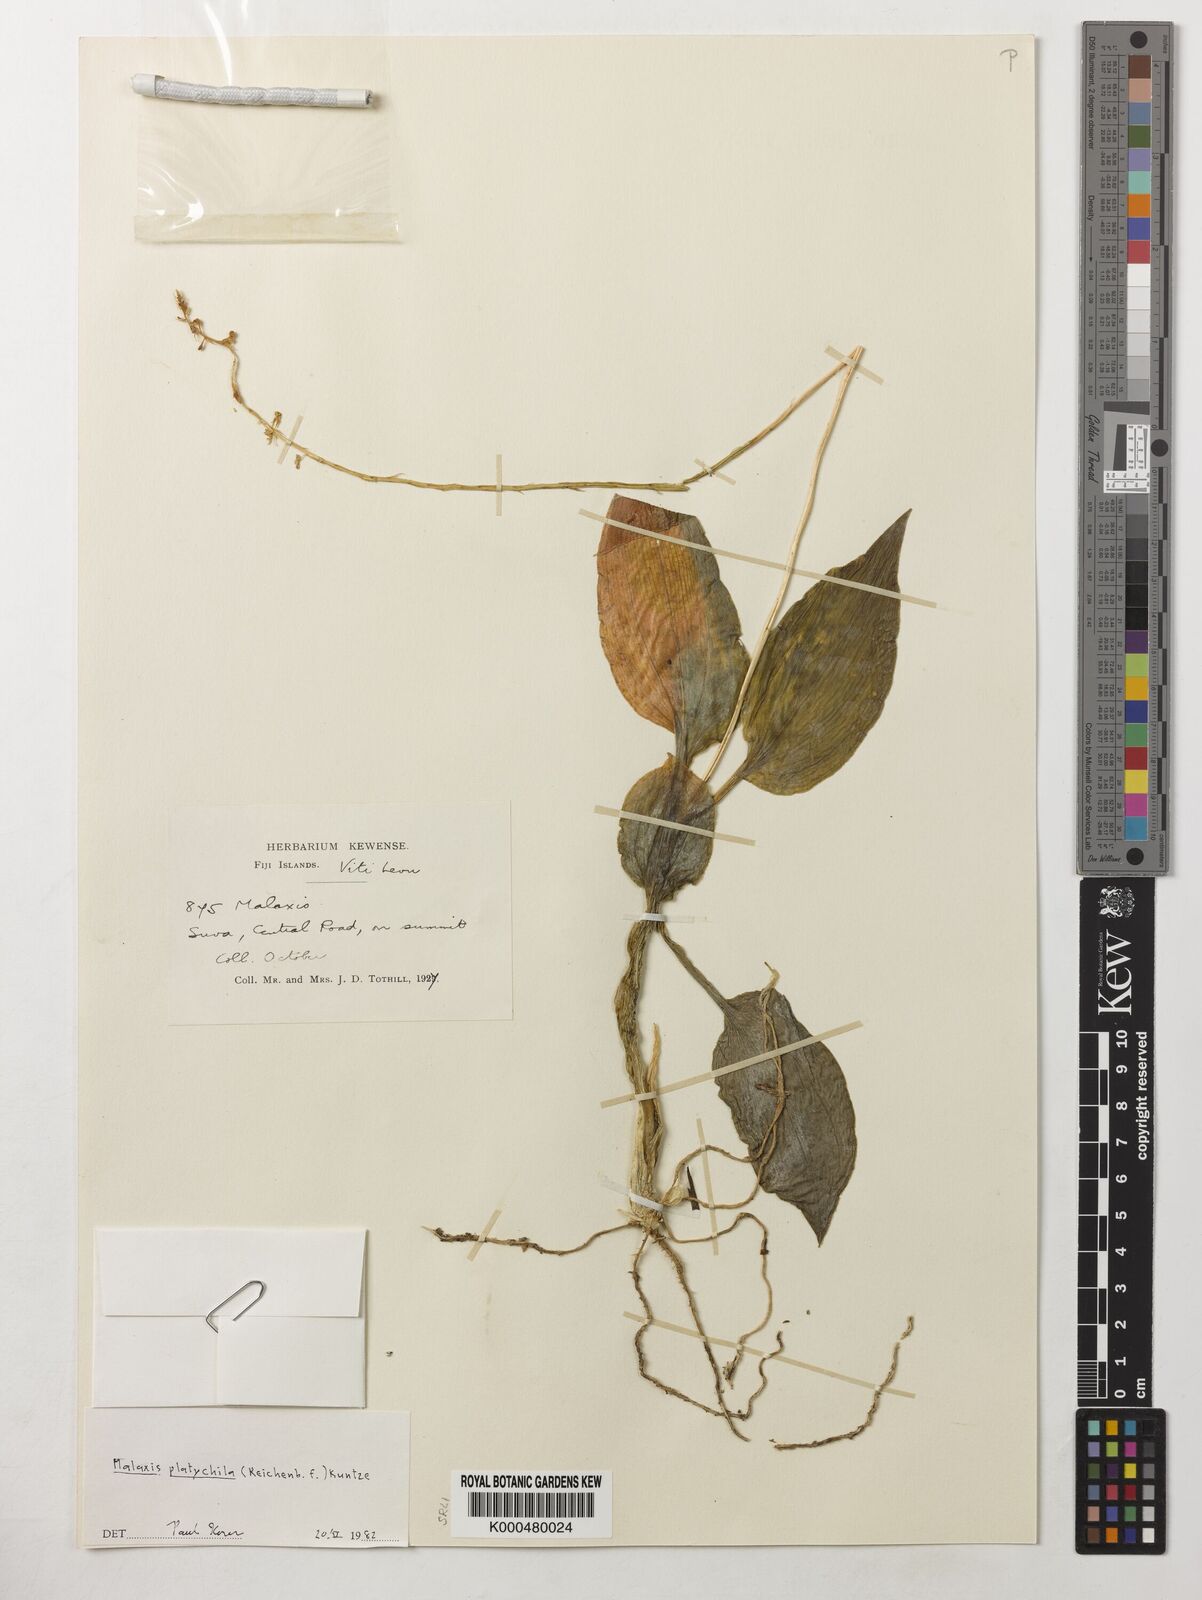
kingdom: Plantae
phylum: Tracheophyta
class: Liliopsida
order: Asparagales
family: Orchidaceae
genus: Crepidium
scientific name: Crepidium platychilum
